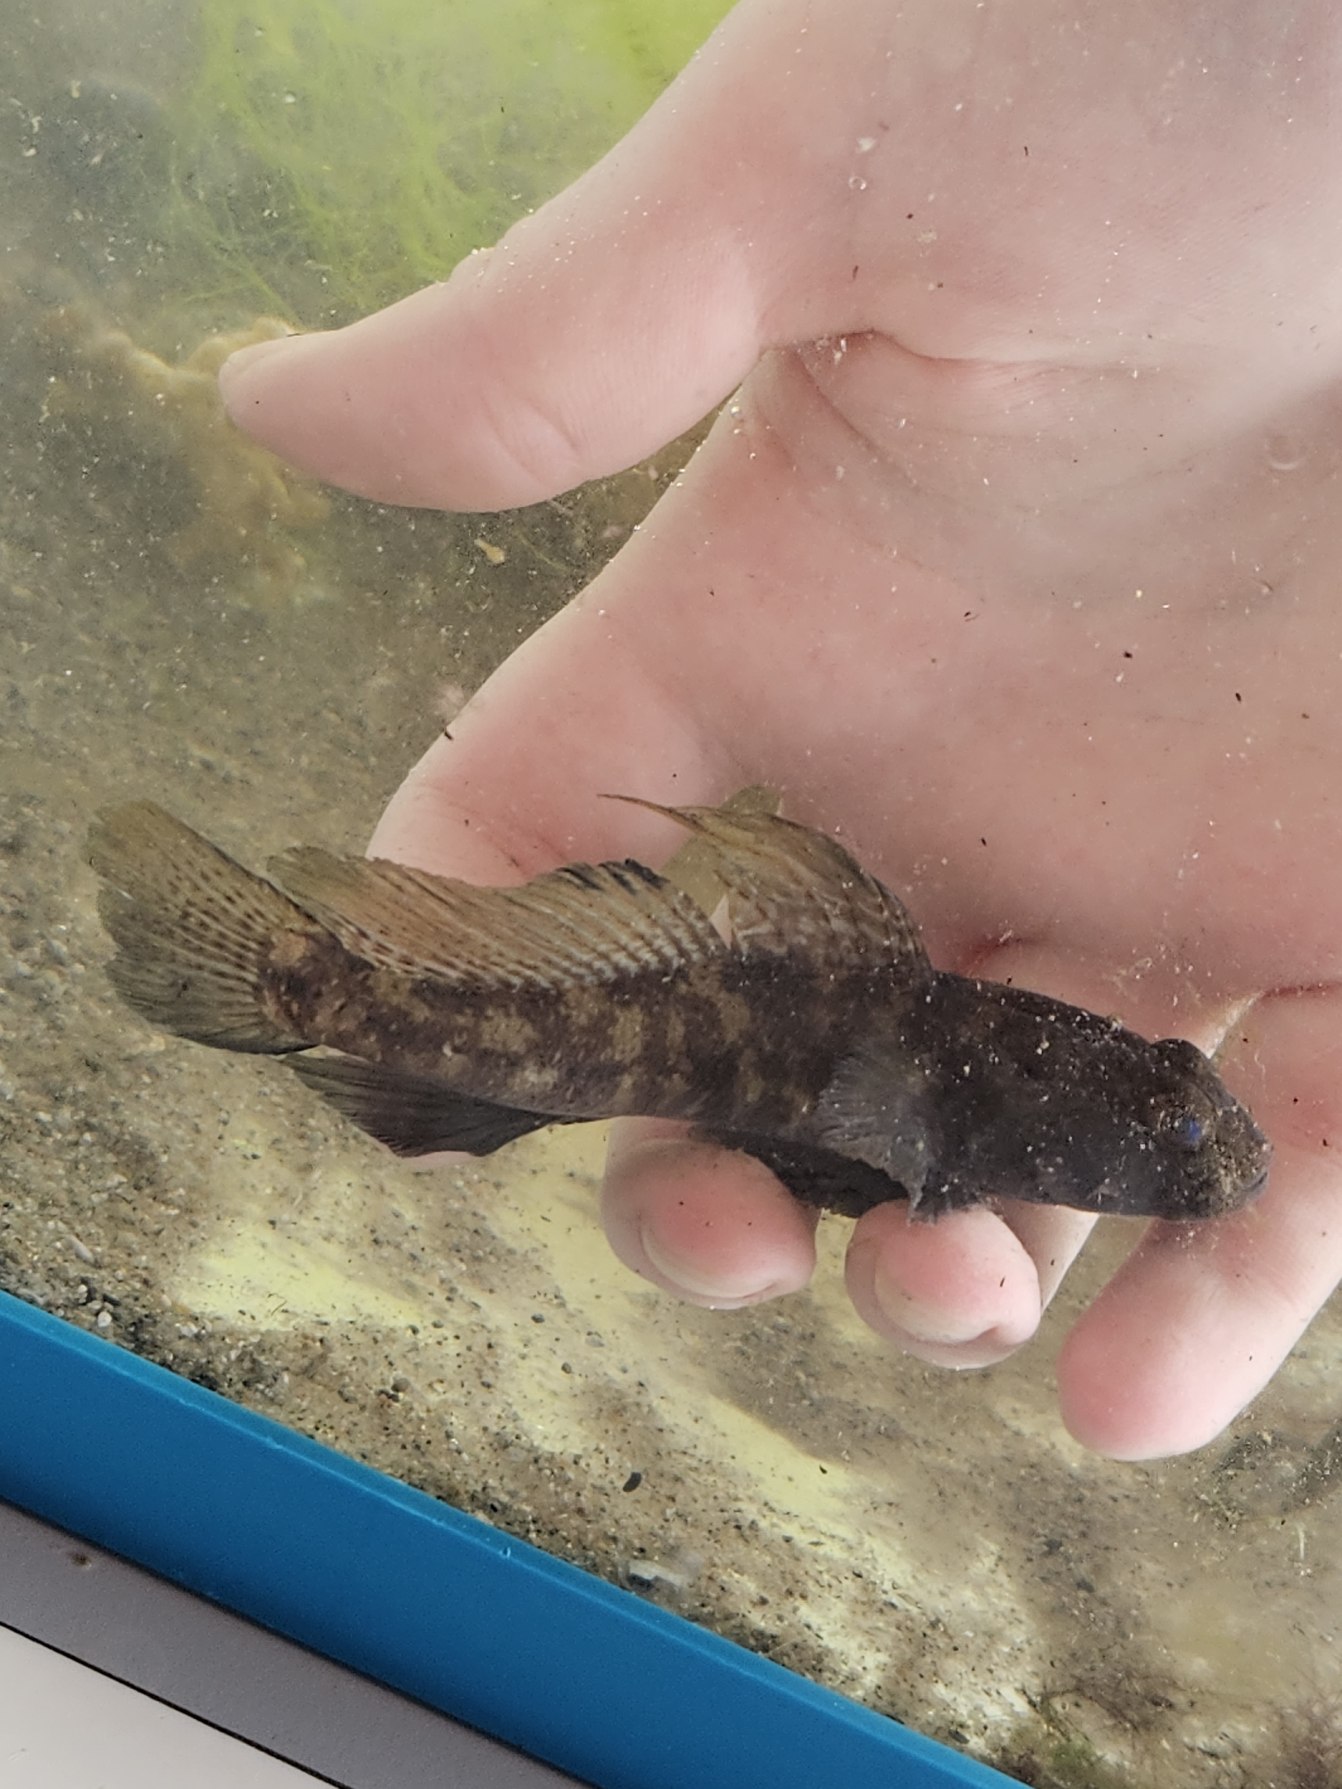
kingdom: Animalia
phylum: Chordata
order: Perciformes
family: Gobiidae
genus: Gobius
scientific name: Gobius niger
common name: Sortkutling
